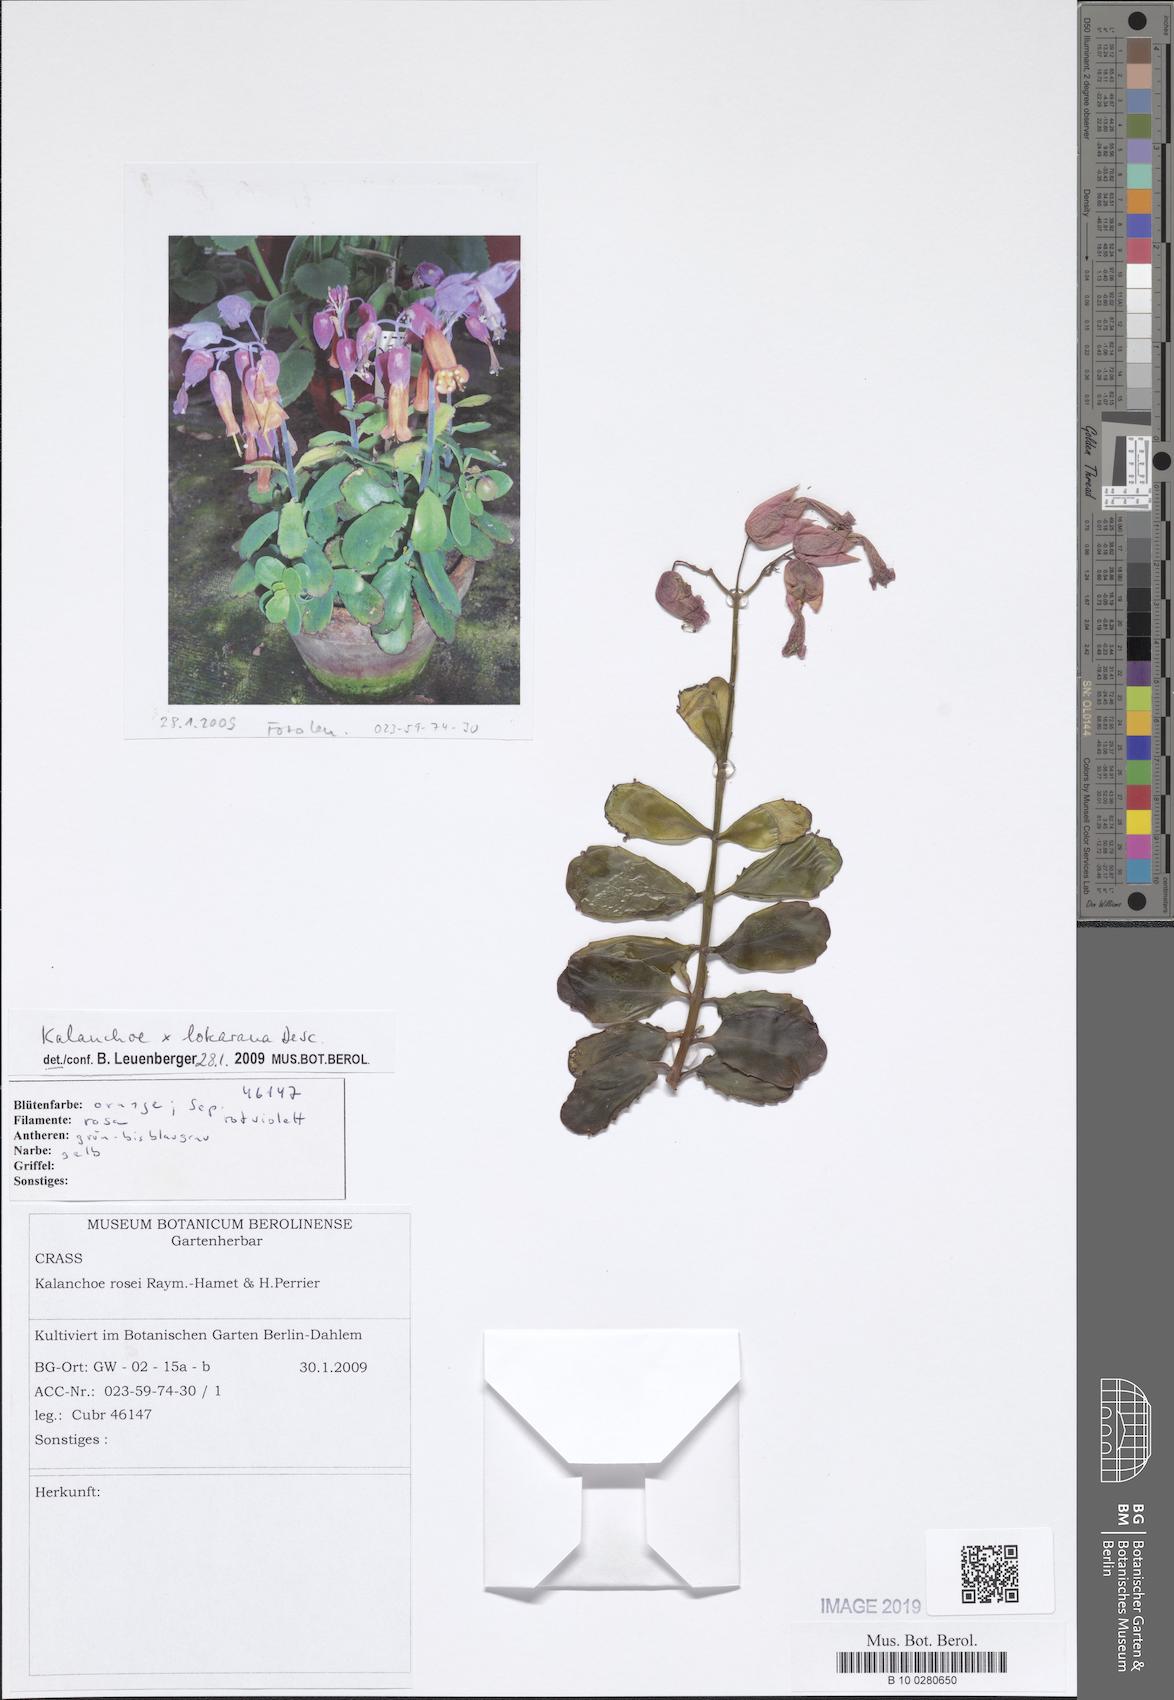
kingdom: Plantae
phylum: Tracheophyta
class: Magnoliopsida
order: Saxifragales
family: Crassulaceae
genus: Kalanchoe
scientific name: Kalanchoe lokarana
